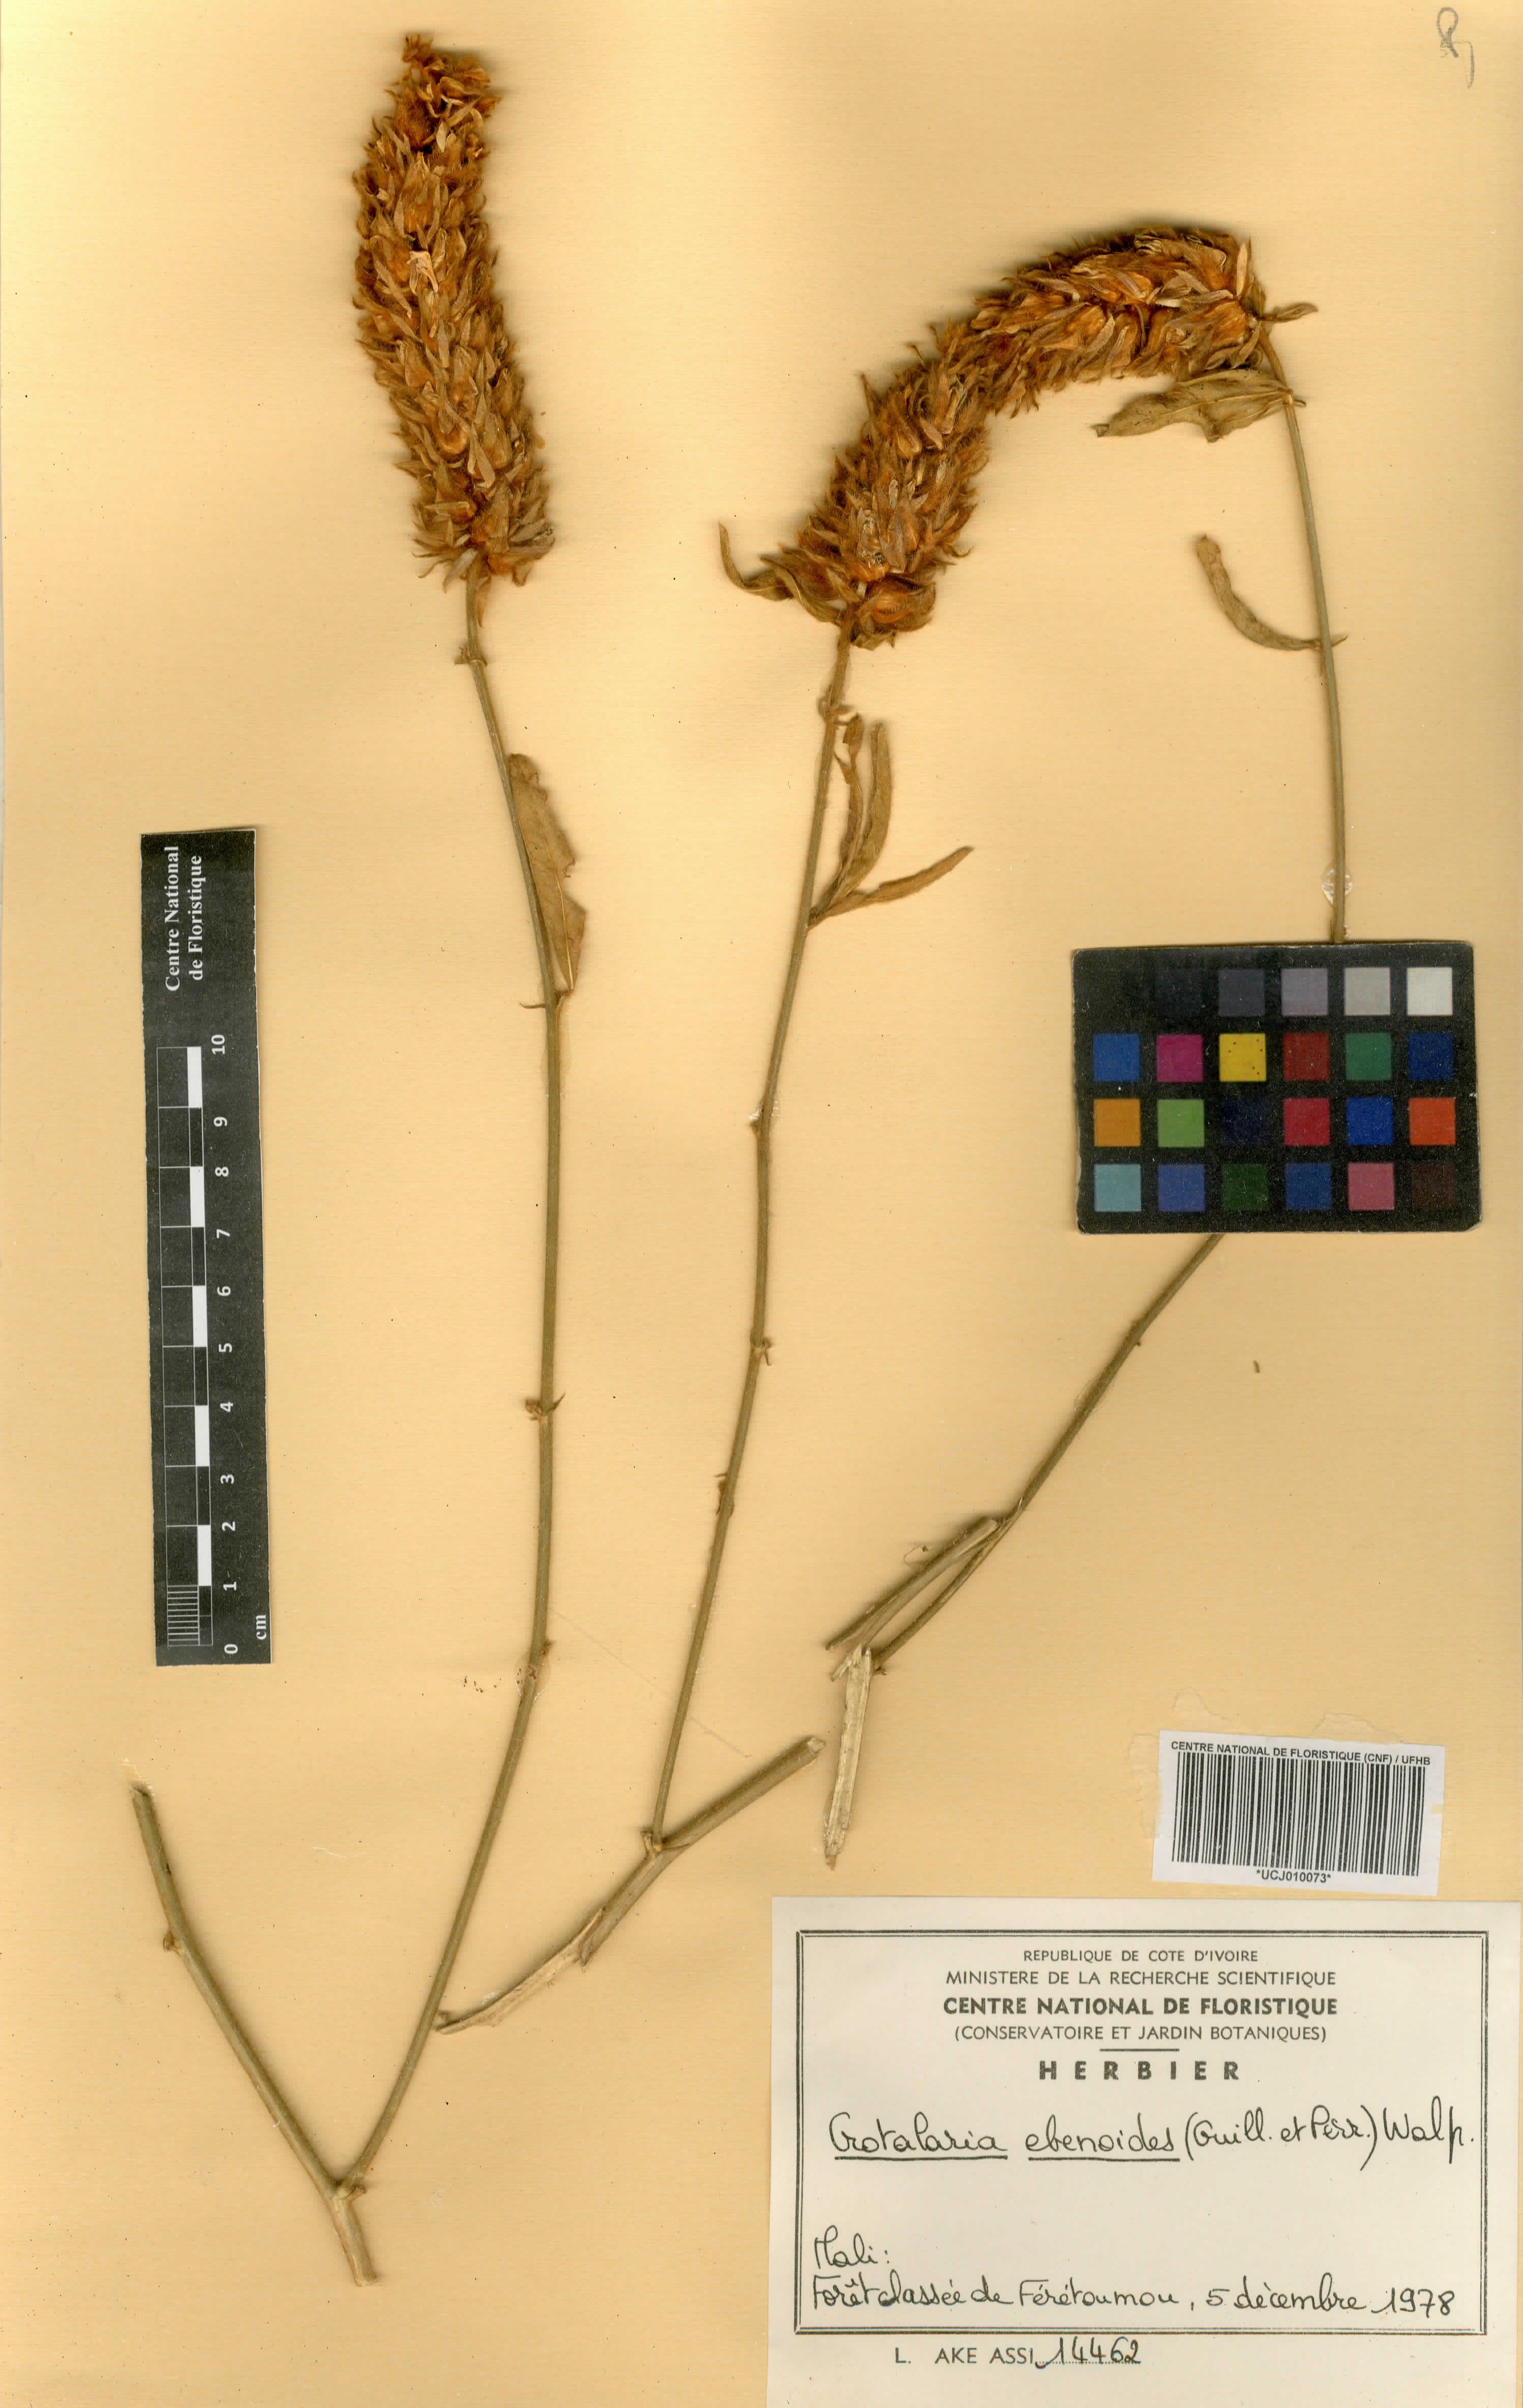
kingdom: Plantae
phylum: Tracheophyta
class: Magnoliopsida
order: Fabales
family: Fabaceae
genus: Crotalaria
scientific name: Crotalaria ebenoides
